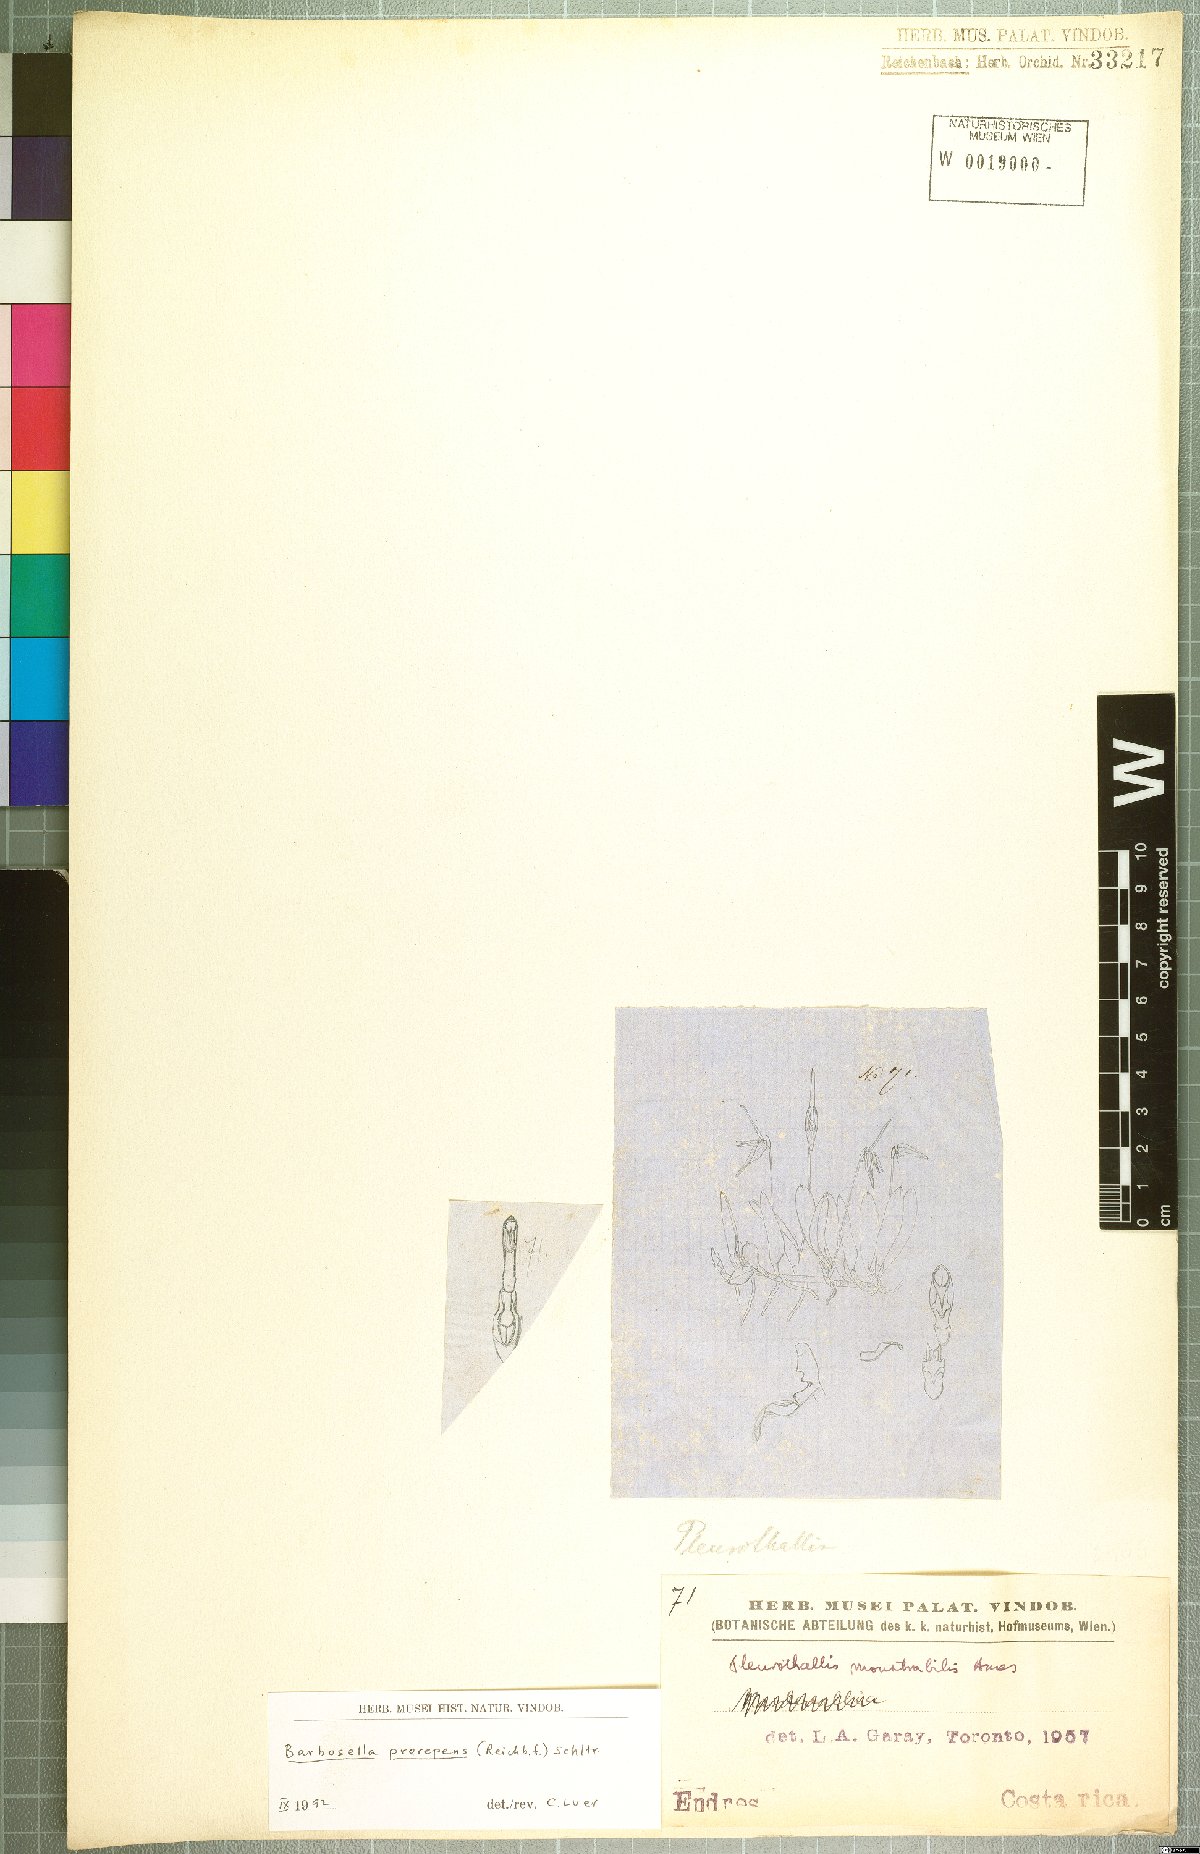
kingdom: Plantae
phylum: Tracheophyta
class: Liliopsida
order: Asparagales
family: Orchidaceae
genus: Barbosella
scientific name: Barbosella prorepens
